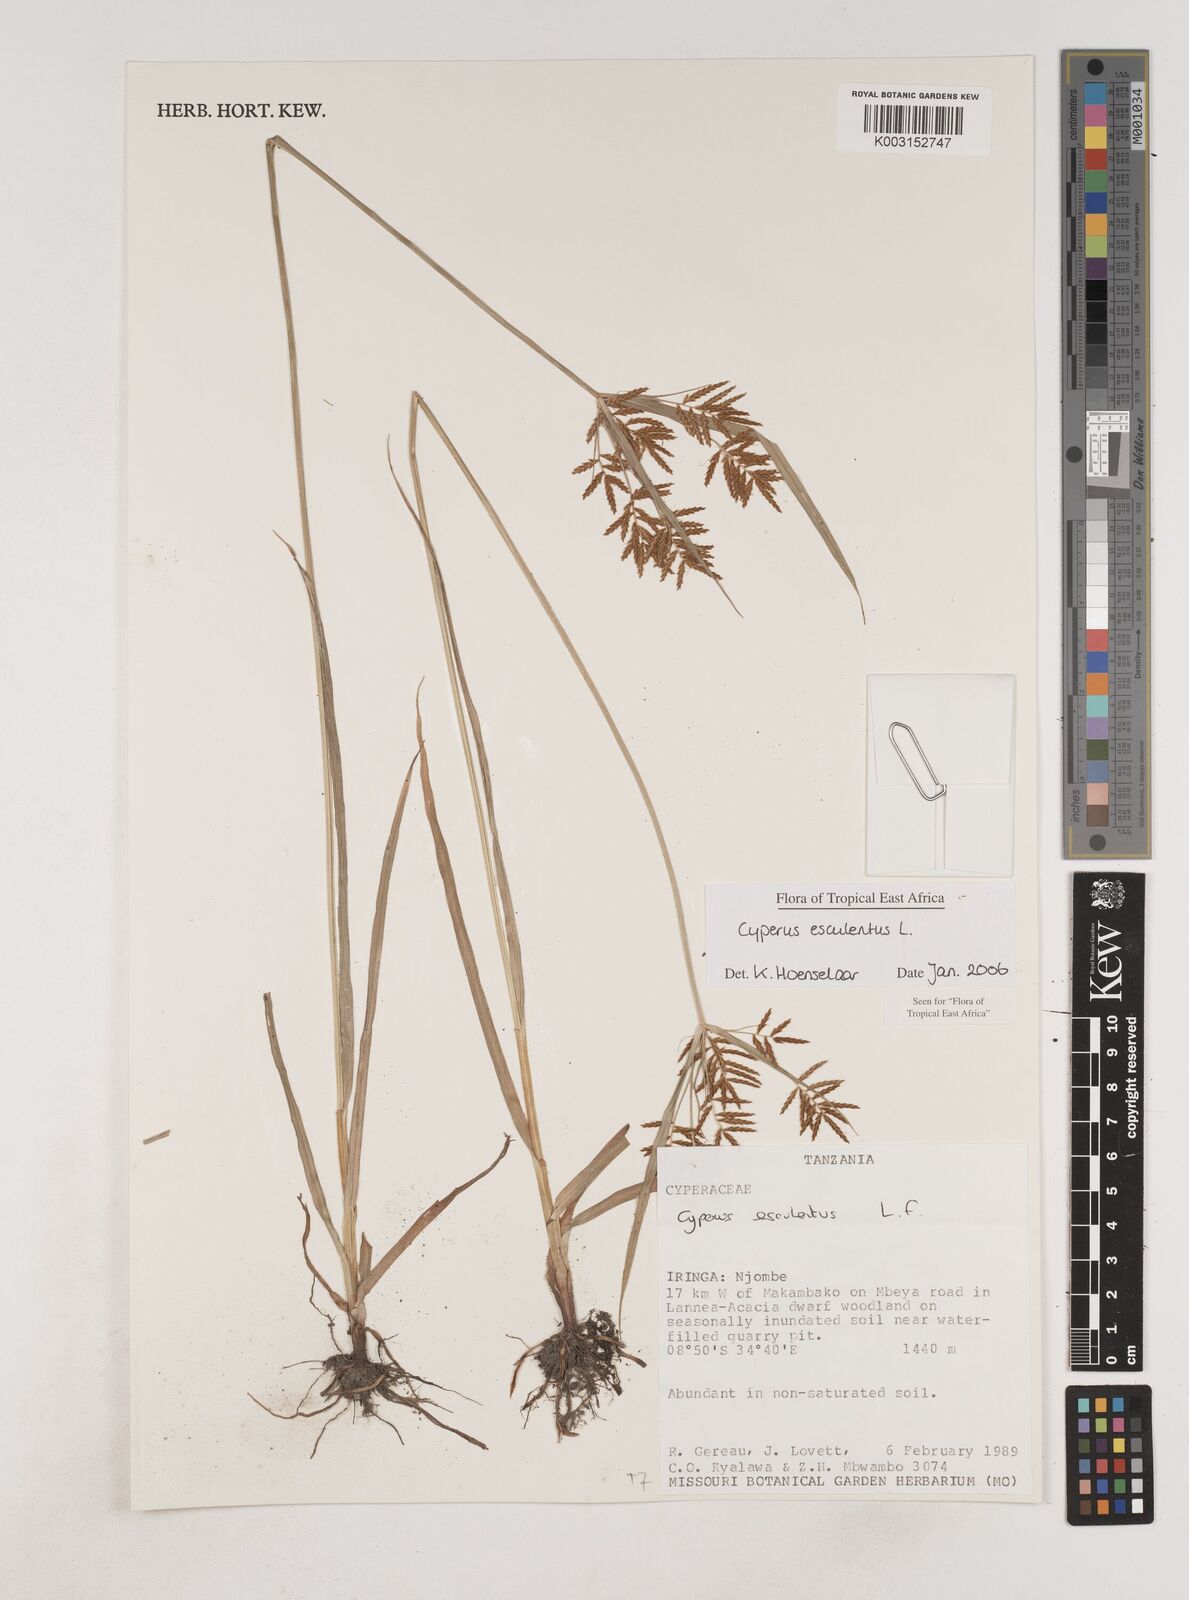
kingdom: Plantae
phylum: Tracheophyta
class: Liliopsida
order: Poales
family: Cyperaceae
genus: Cyperus
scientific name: Cyperus esculentus
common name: Yellow nutsedge
